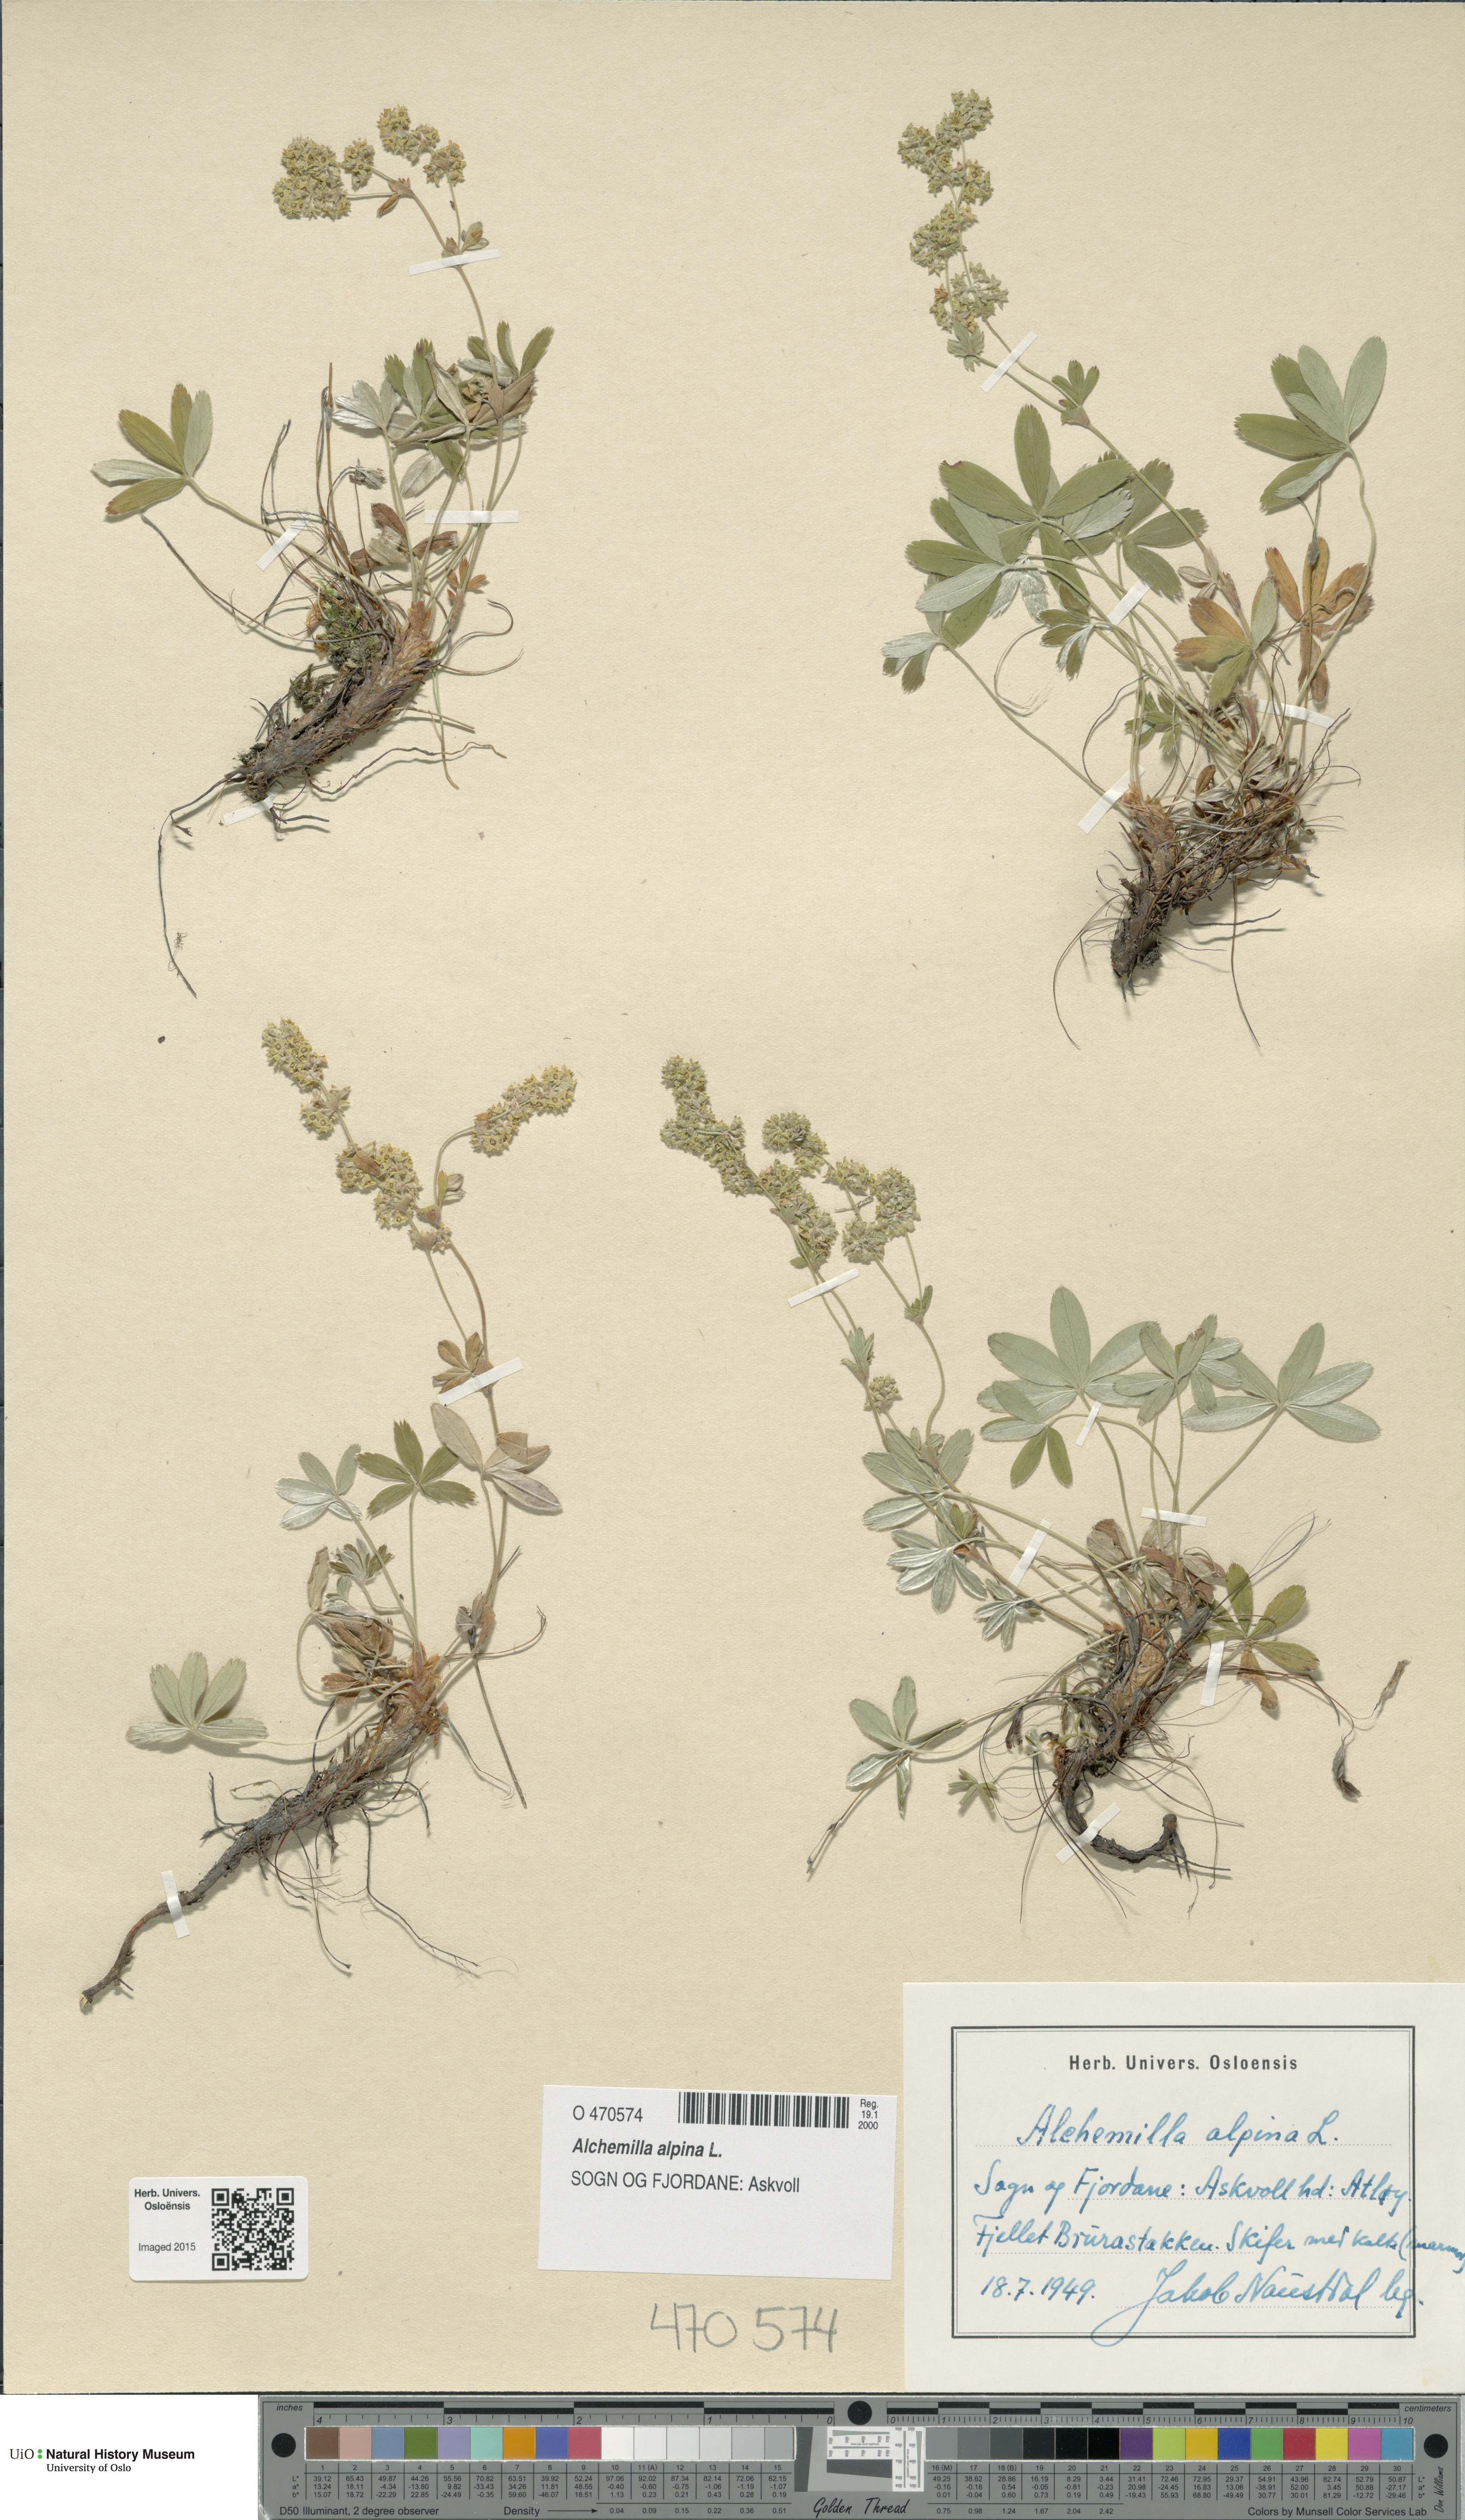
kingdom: Plantae
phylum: Tracheophyta
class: Magnoliopsida
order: Rosales
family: Rosaceae
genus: Alchemilla
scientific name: Alchemilla alpina
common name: Alpine lady's-mantle
